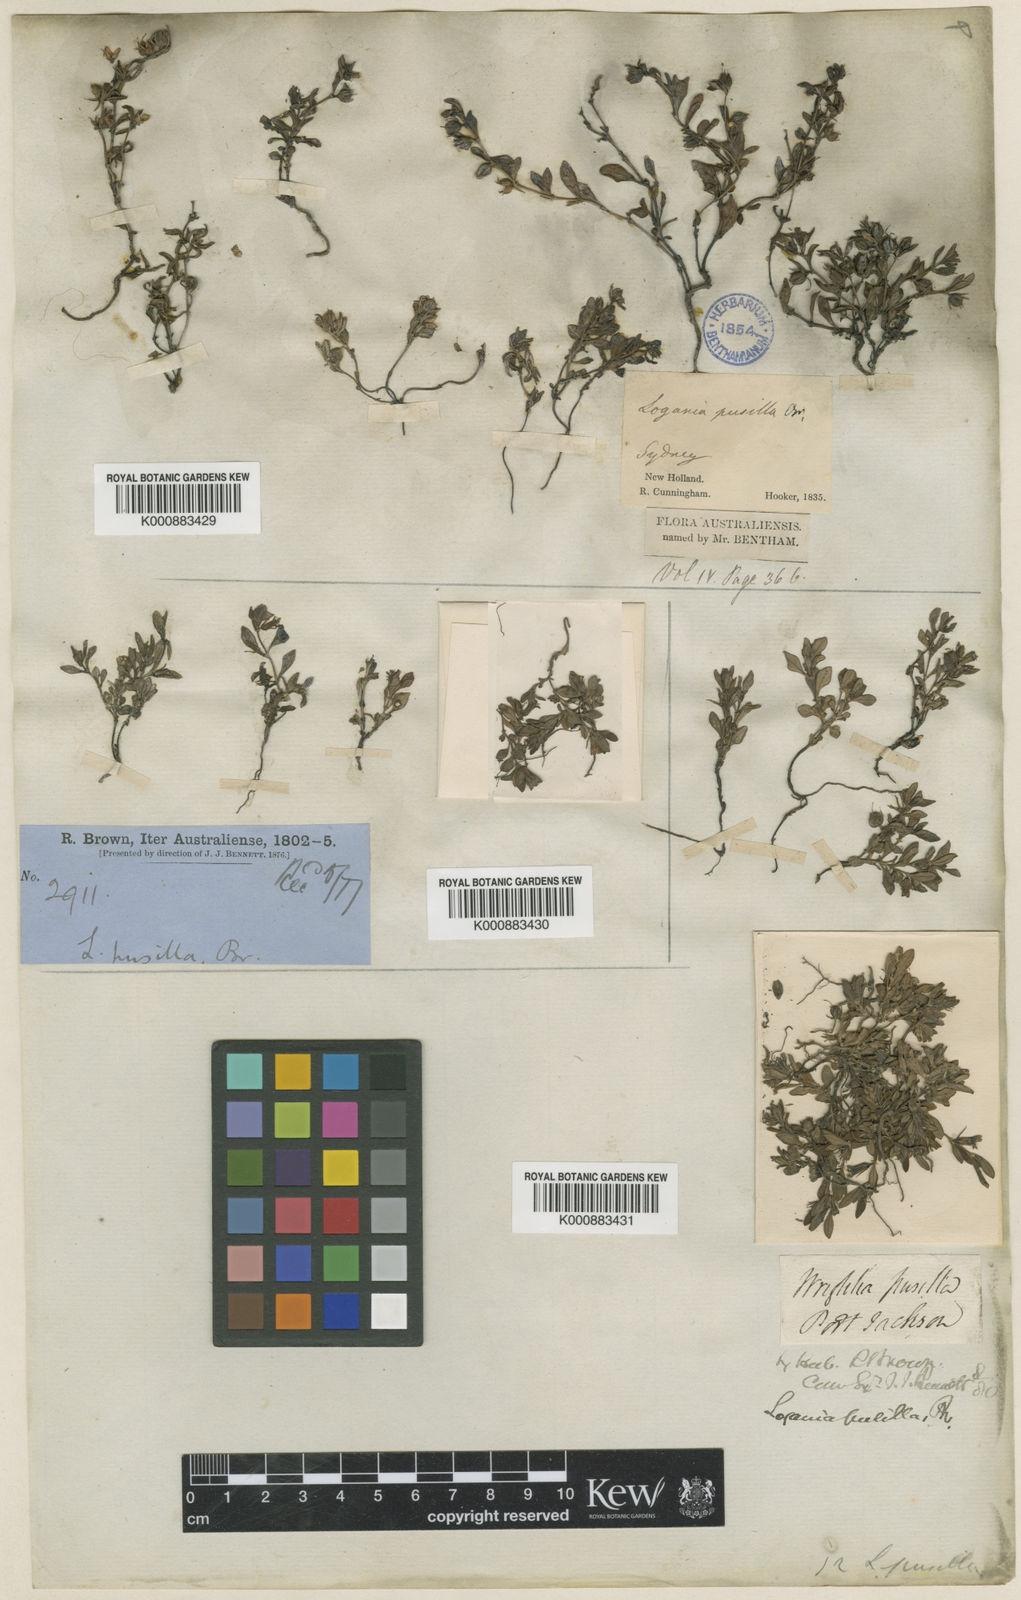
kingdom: Plantae
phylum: Tracheophyta
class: Magnoliopsida
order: Gentianales
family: Loganiaceae
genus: Orianthera
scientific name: Orianthera pusilla
